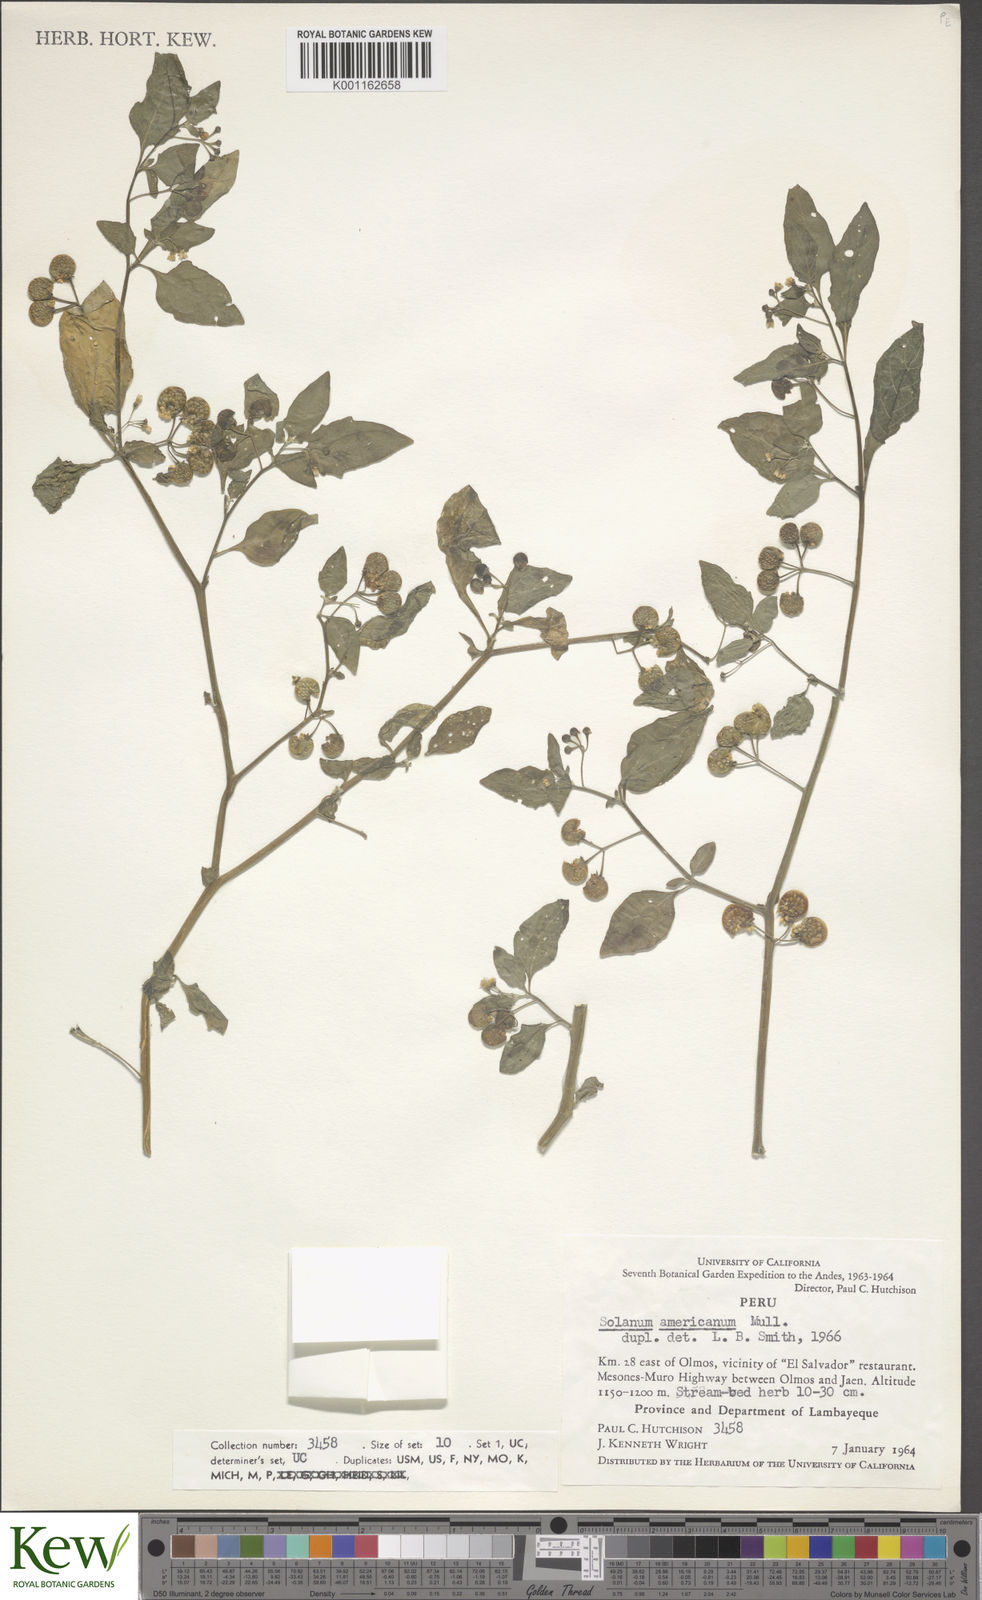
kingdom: Plantae
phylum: Tracheophyta
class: Magnoliopsida
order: Solanales
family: Solanaceae
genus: Solanum
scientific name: Solanum americanum
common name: American black nightshade
